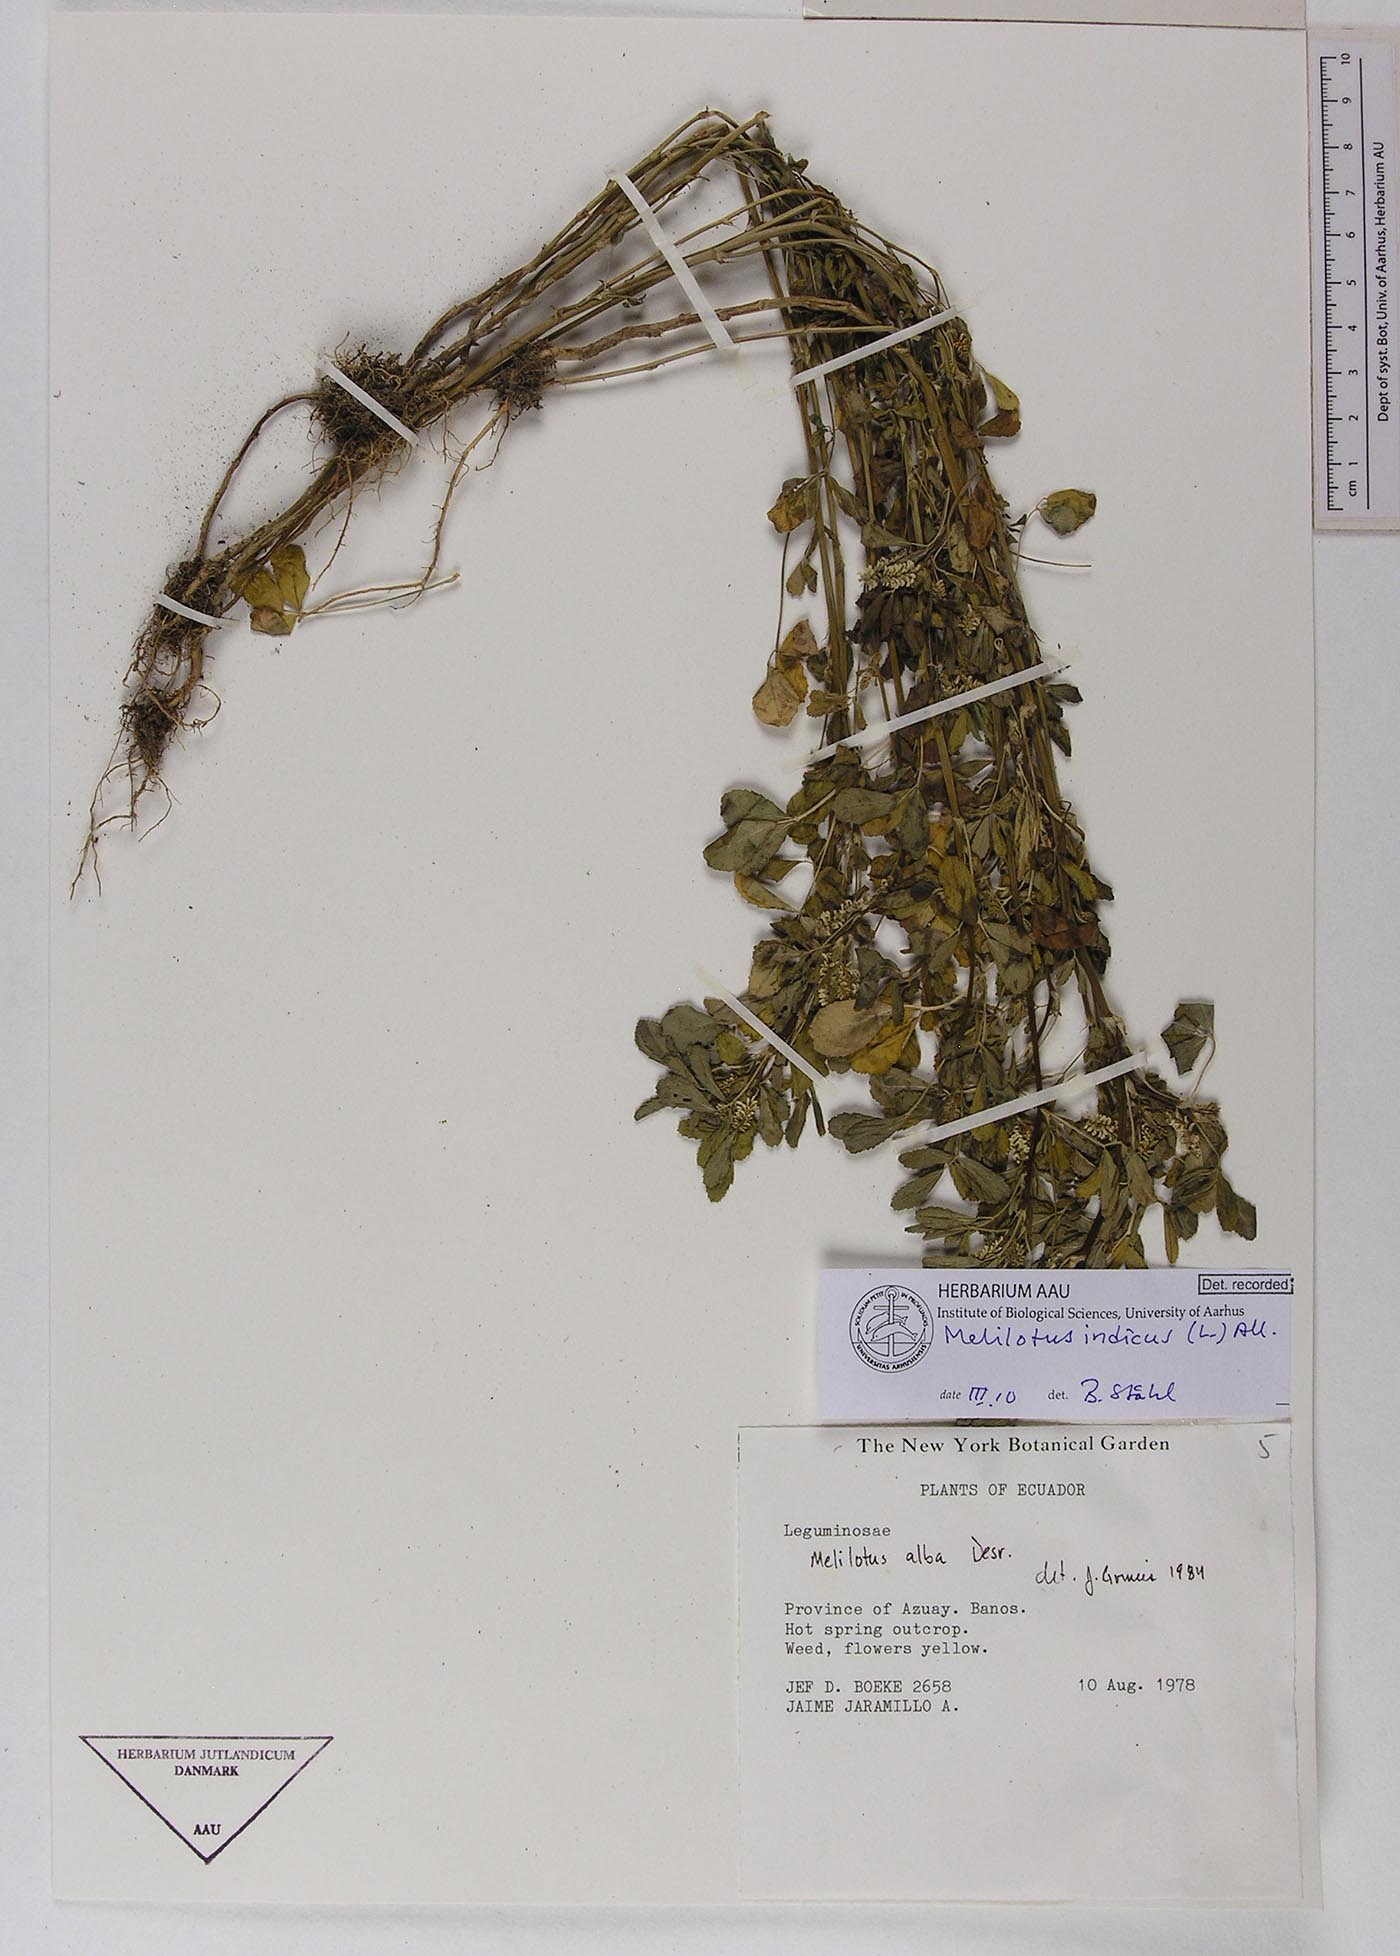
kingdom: Plantae
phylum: Tracheophyta
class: Magnoliopsida
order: Fabales
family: Fabaceae
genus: Melilotus
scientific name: Melilotus indicus
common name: Small melilot
